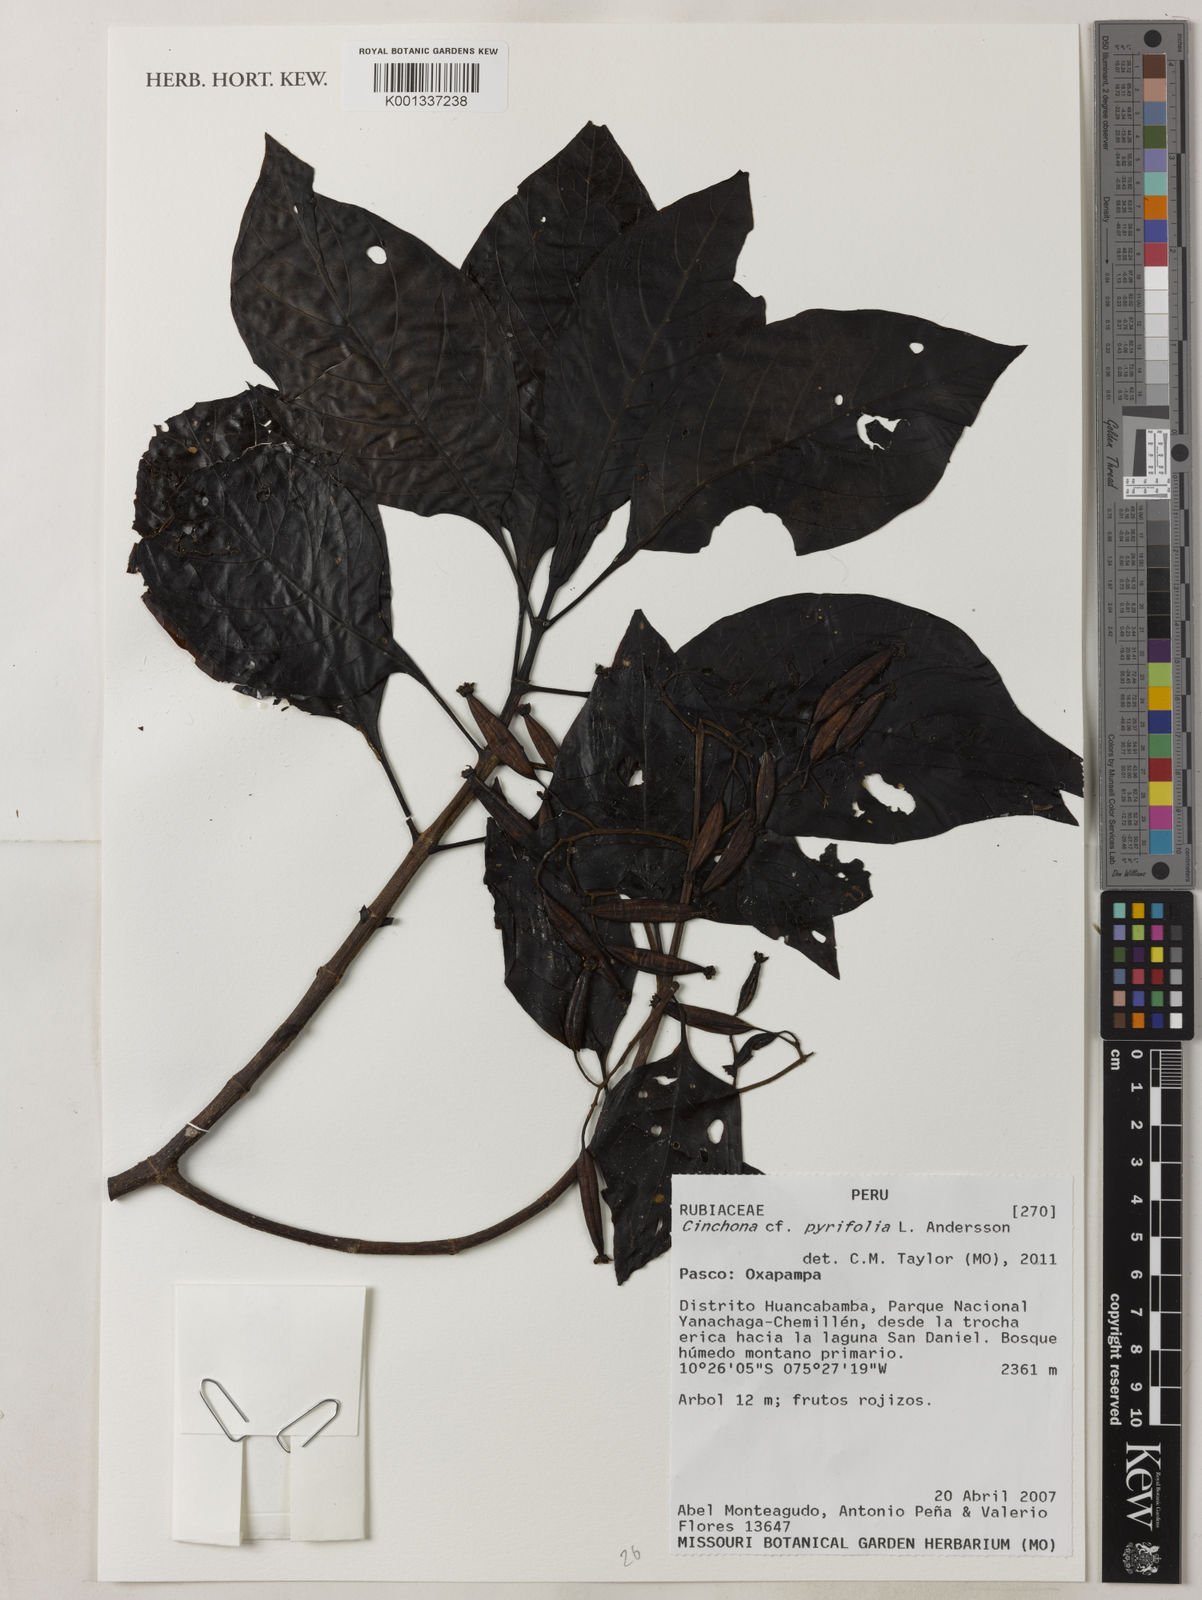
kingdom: Plantae
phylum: Tracheophyta
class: Magnoliopsida
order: Gentianales
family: Rubiaceae
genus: Cinchona
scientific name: Cinchona pyrifolia
